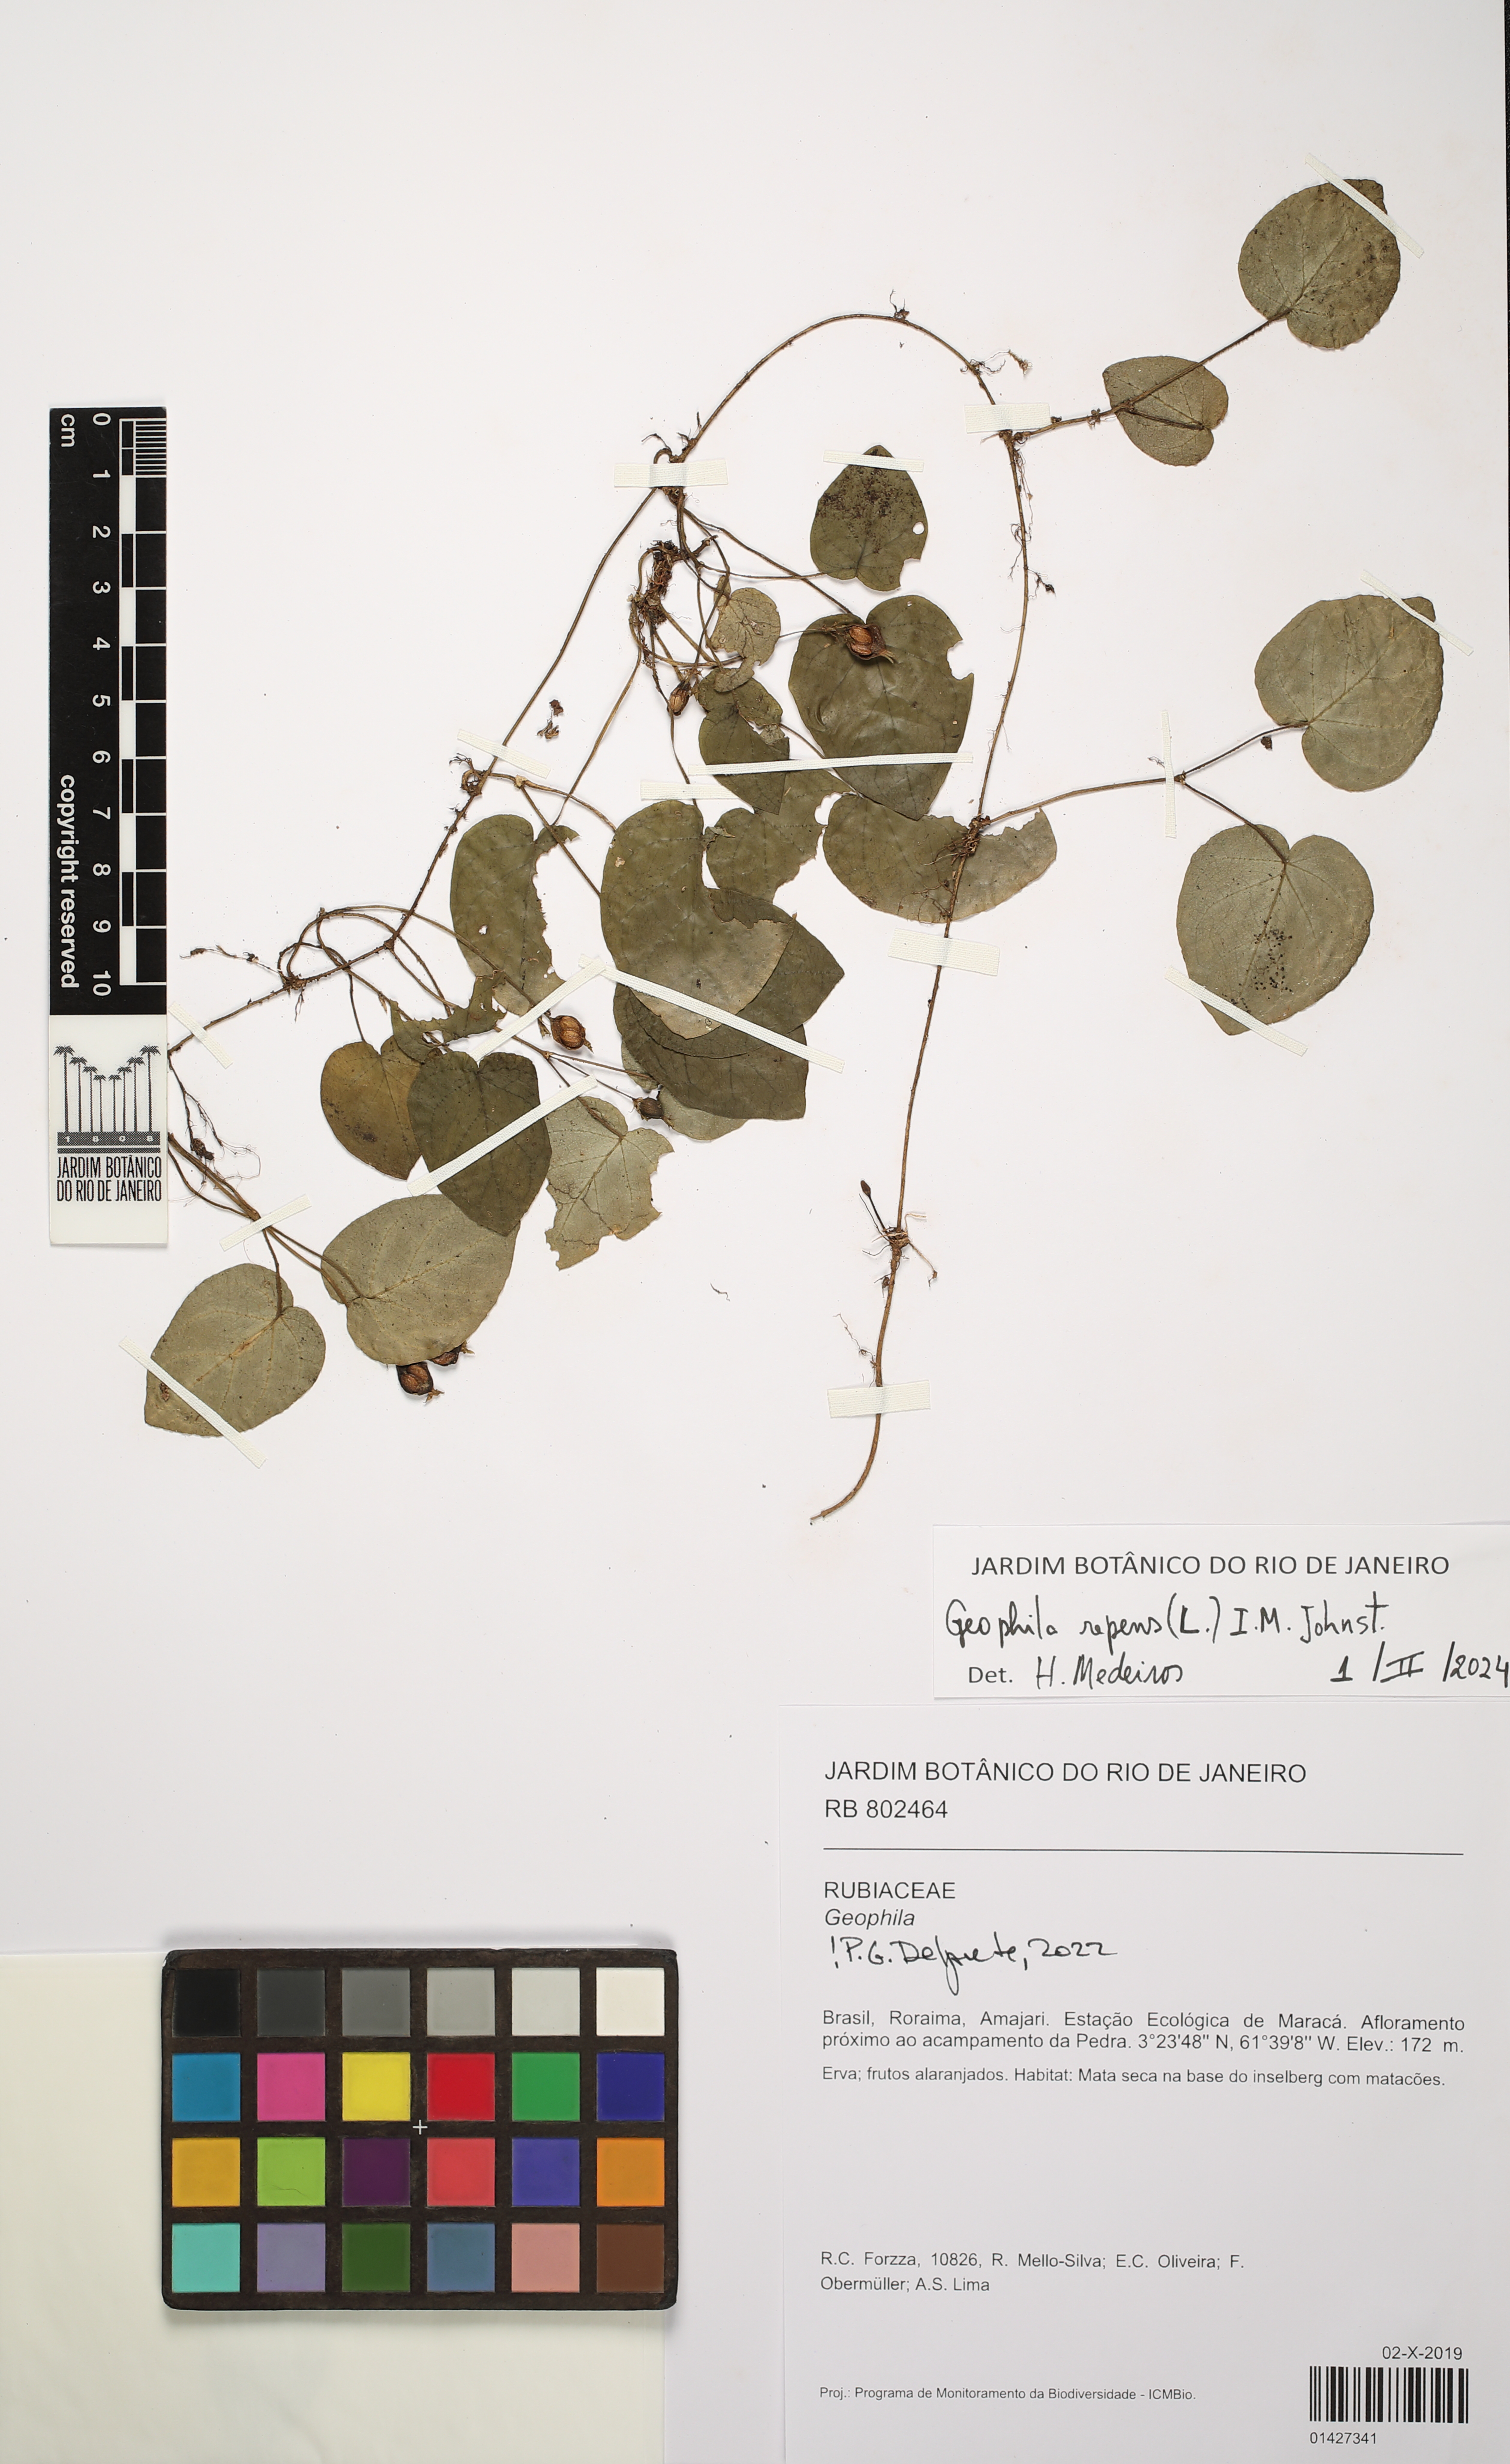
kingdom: Plantae
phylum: Tracheophyta
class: Magnoliopsida
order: Gentianales
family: Rubiaceae
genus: Geophila
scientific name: Geophila repens
